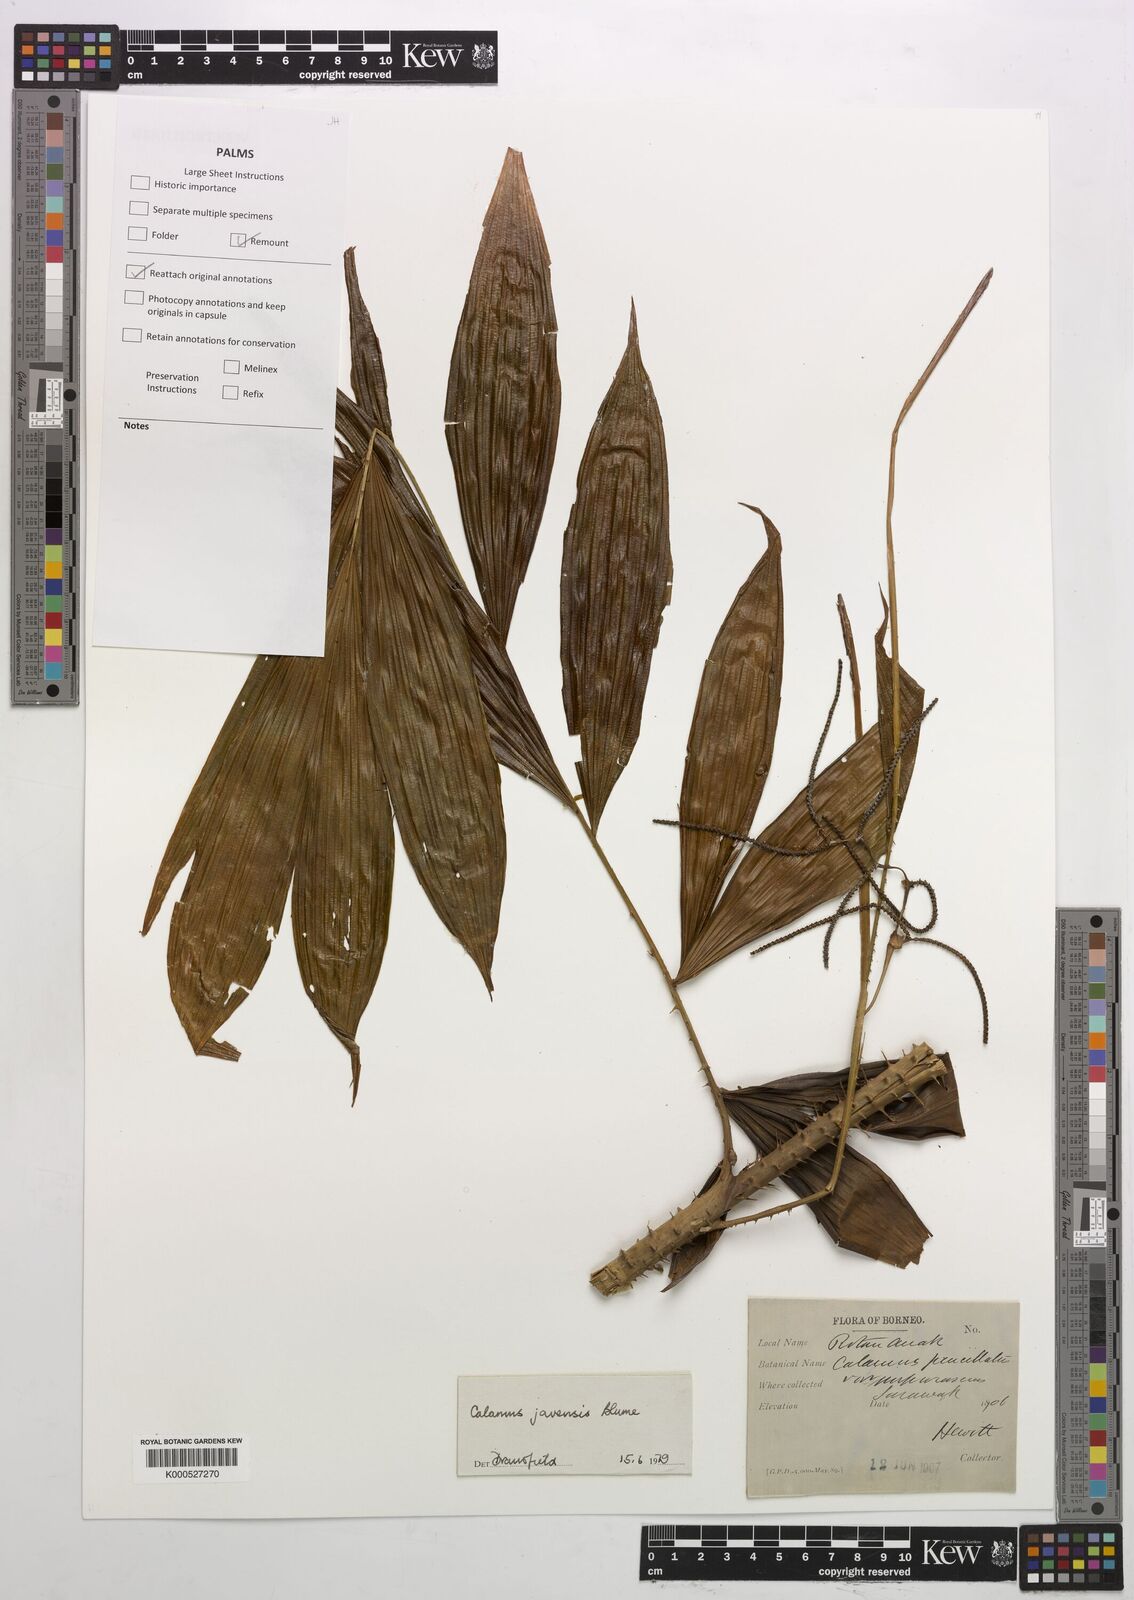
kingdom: Plantae
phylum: Tracheophyta
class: Liliopsida
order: Arecales
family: Arecaceae
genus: Calamus
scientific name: Calamus javensis
